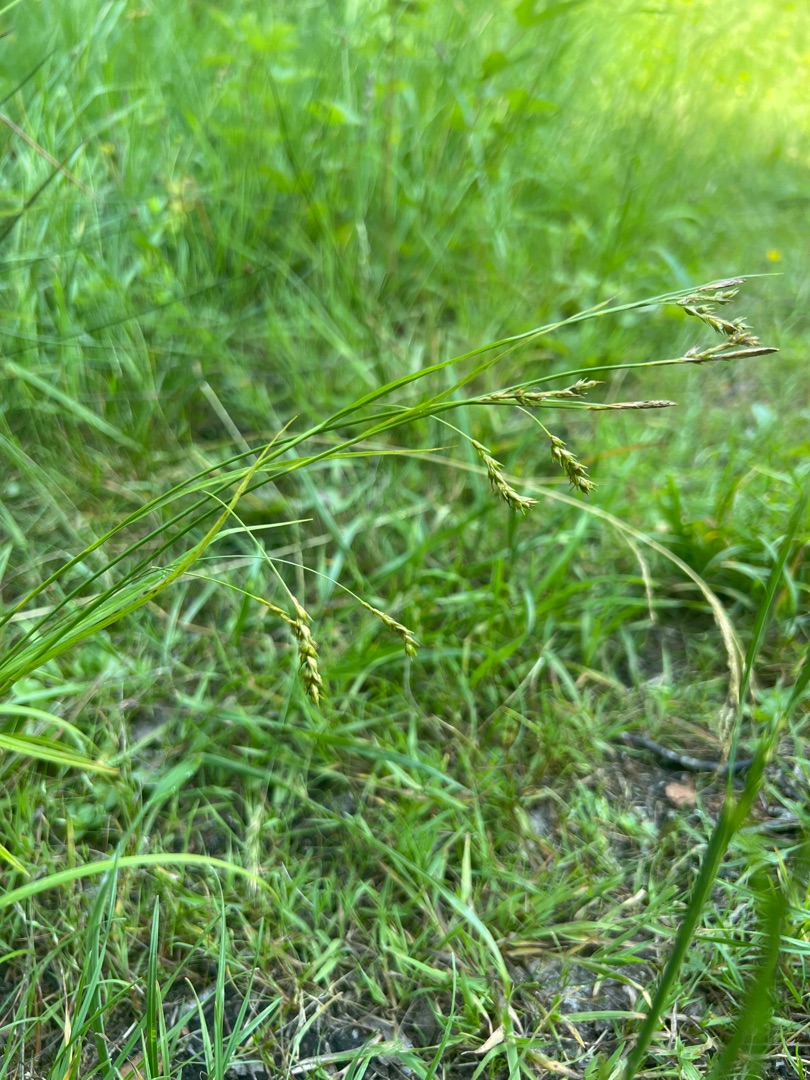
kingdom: Plantae
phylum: Tracheophyta
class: Liliopsida
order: Poales
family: Cyperaceae
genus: Carex
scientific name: Carex sylvatica
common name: Skov-star
